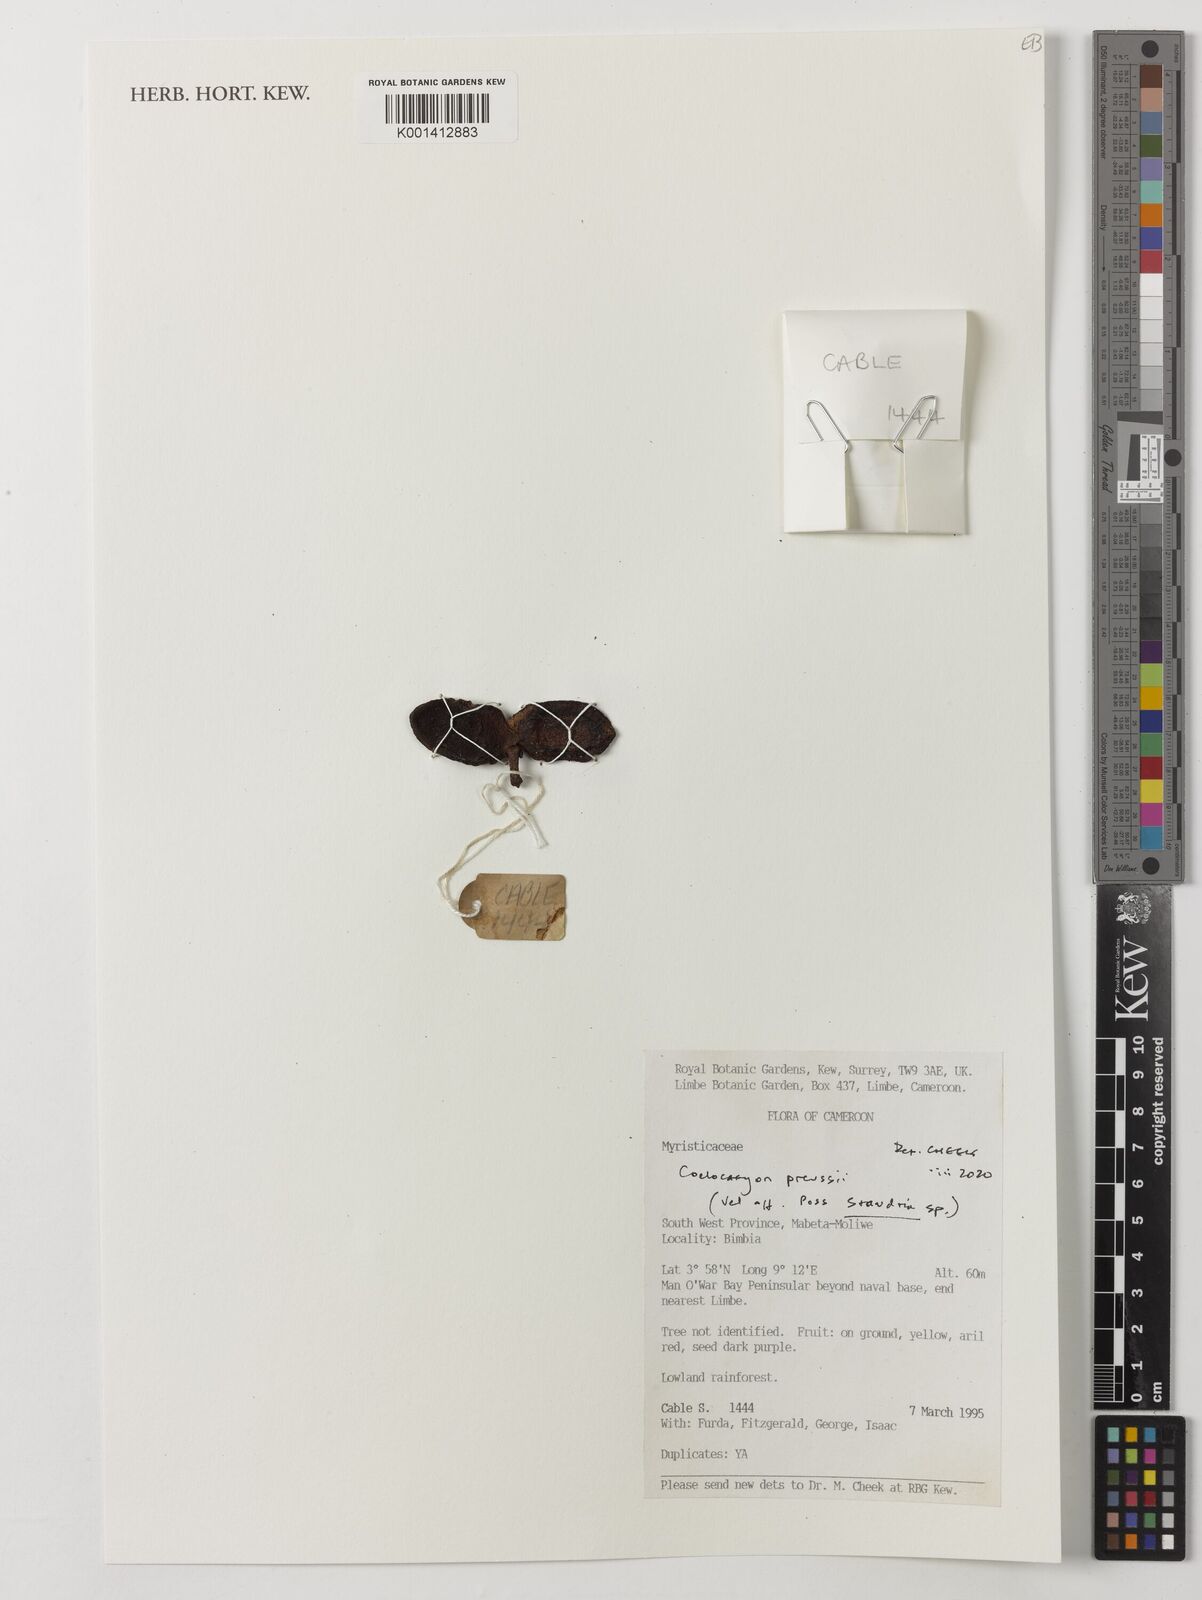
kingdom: Plantae
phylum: Tracheophyta
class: Magnoliopsida
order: Magnoliales
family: Myristicaceae
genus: Coelocaryon
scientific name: Coelocaryon preussii
